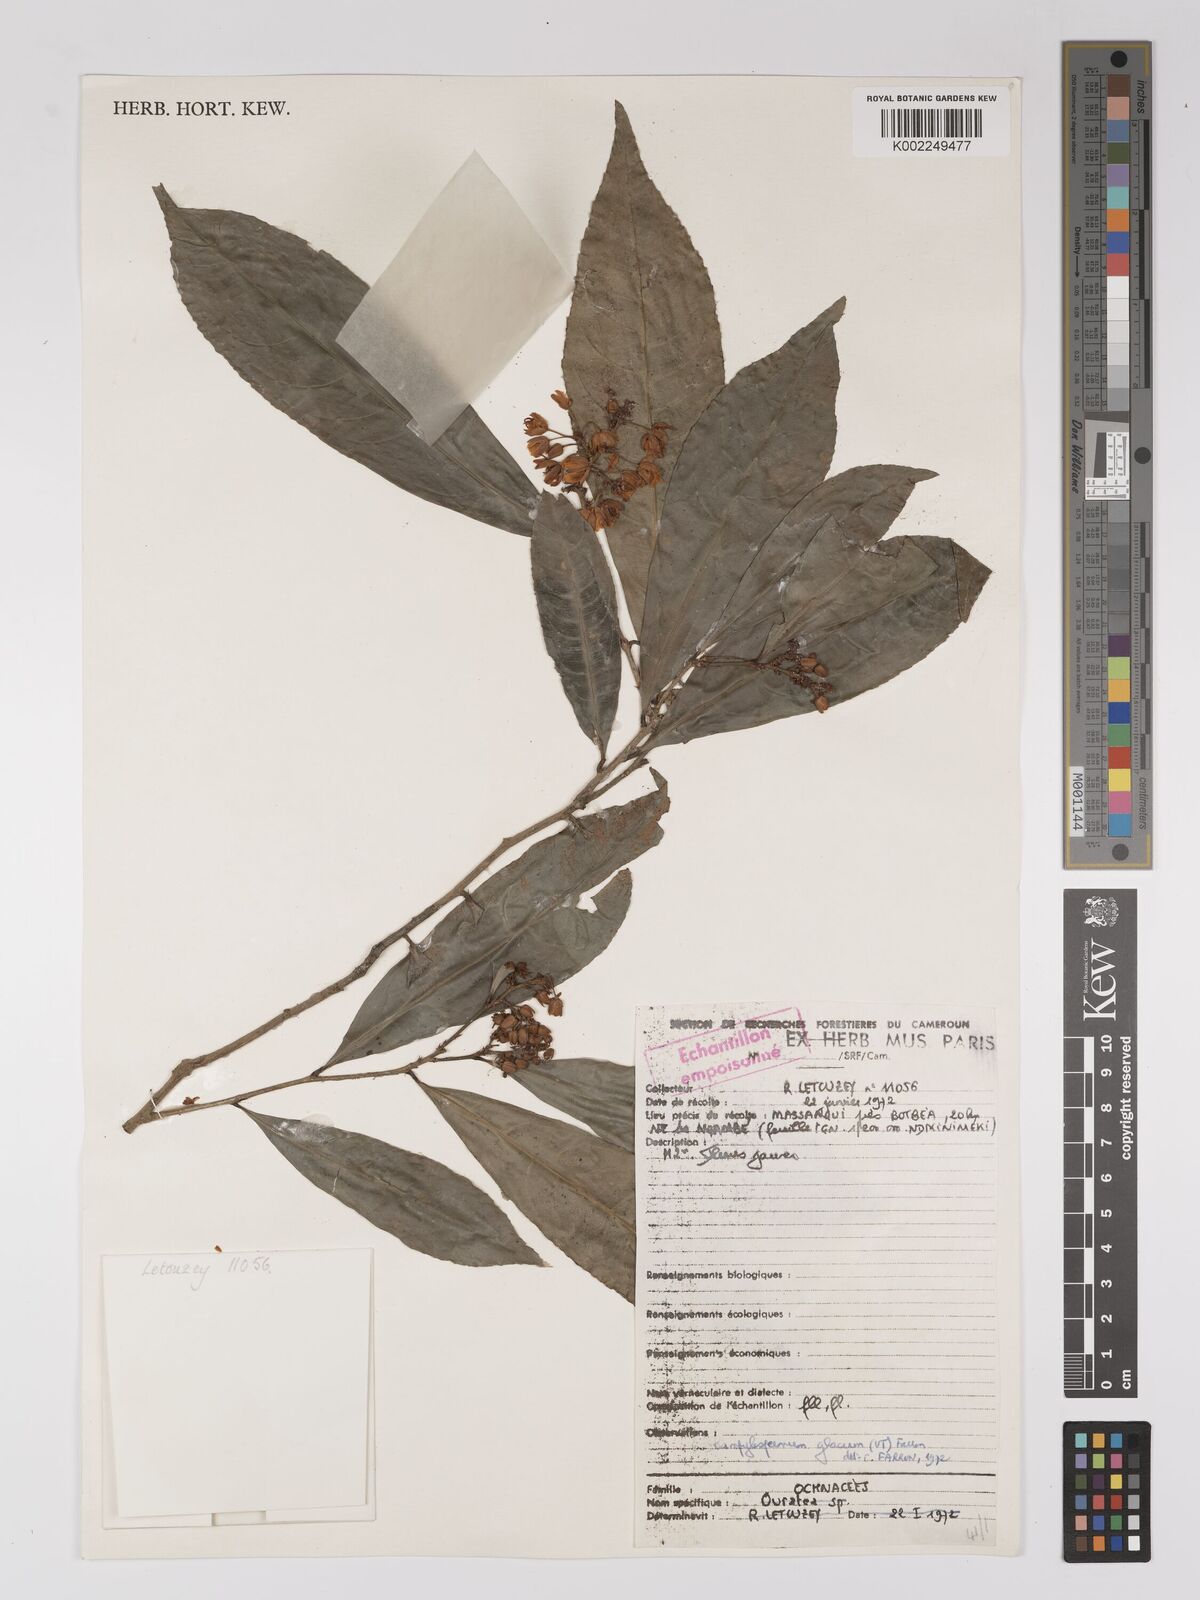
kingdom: Plantae
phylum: Tracheophyta
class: Magnoliopsida
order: Malpighiales
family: Ochnaceae
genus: Campylospermum
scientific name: Campylospermum glaucum
